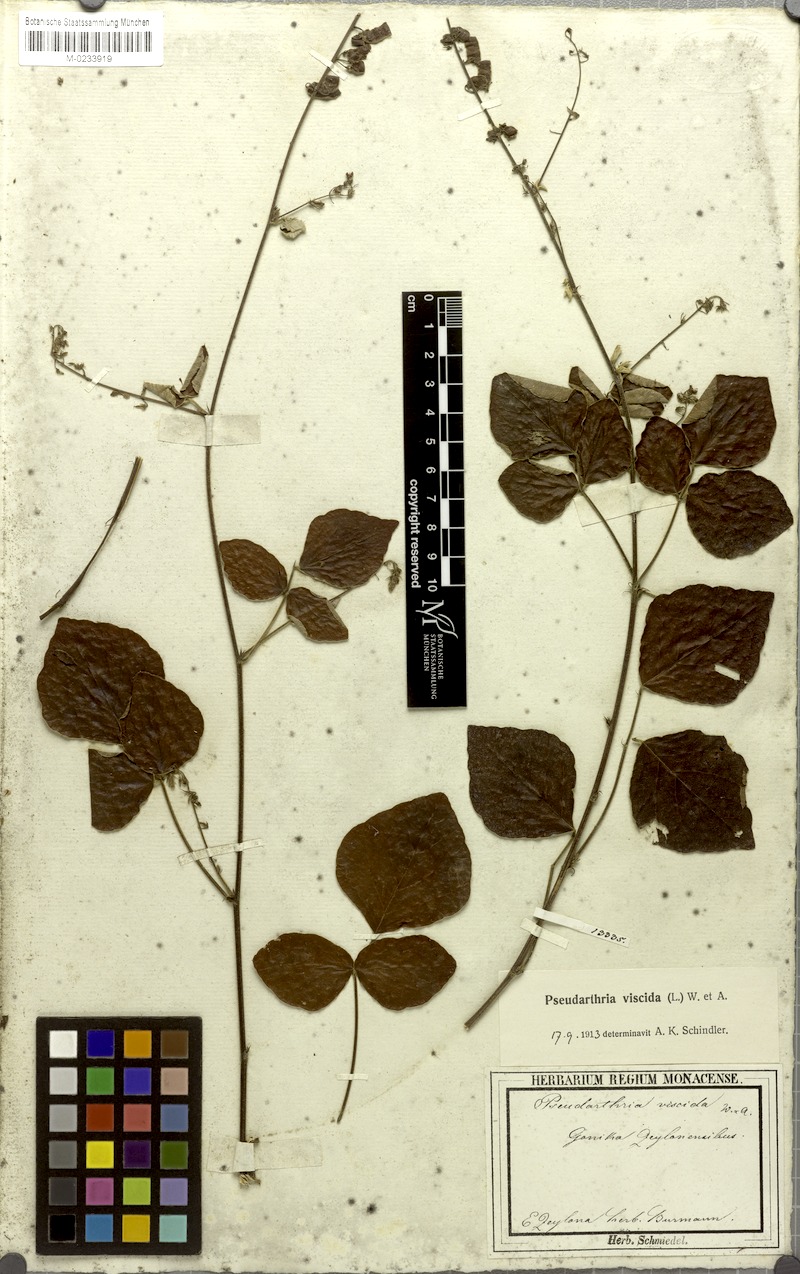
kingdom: Plantae
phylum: Tracheophyta
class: Magnoliopsida
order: Fabales
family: Fabaceae
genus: Pseudarthria
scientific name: Pseudarthria viscida
